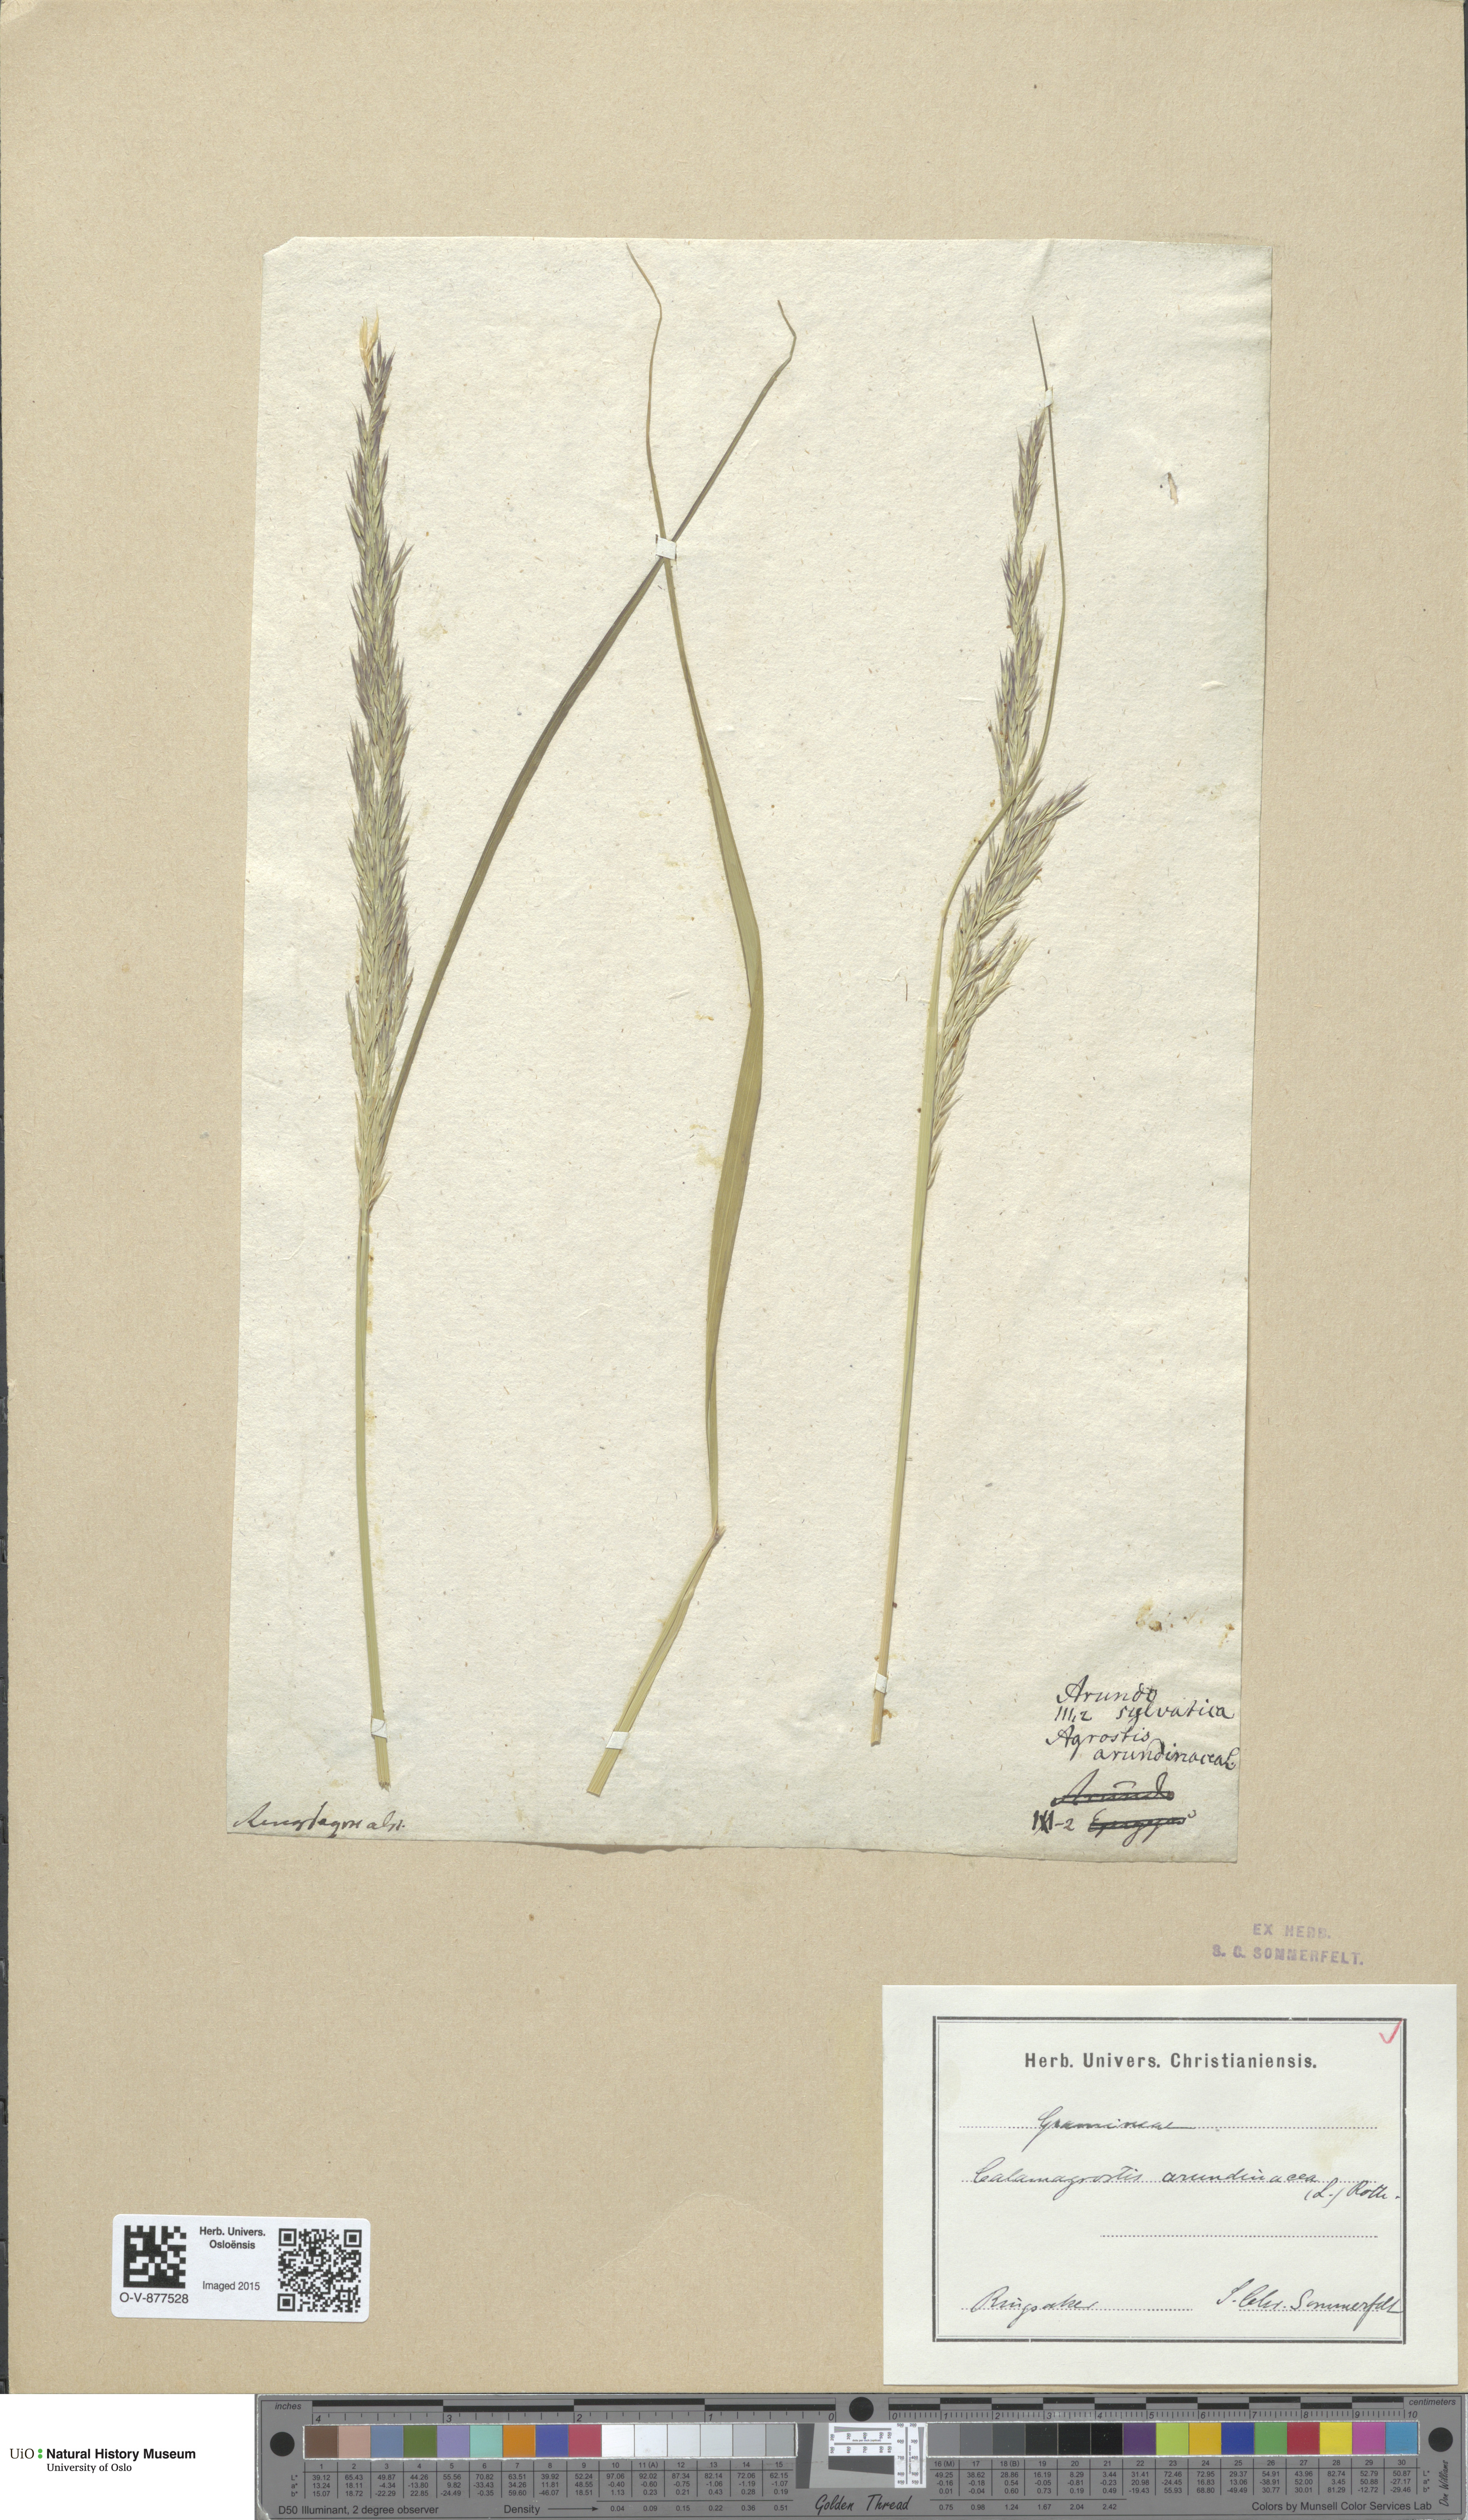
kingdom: Plantae
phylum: Tracheophyta
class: Liliopsida
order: Poales
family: Poaceae
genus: Calamagrostis
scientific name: Calamagrostis arundinacea
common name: Metskastik
